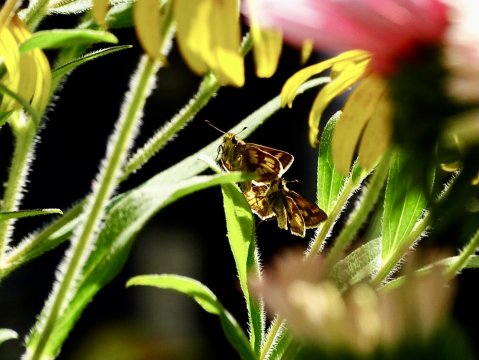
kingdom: Animalia
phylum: Arthropoda
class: Insecta
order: Lepidoptera
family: Hesperiidae
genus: Polites
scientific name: Polites coras
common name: Peck's Skipper
